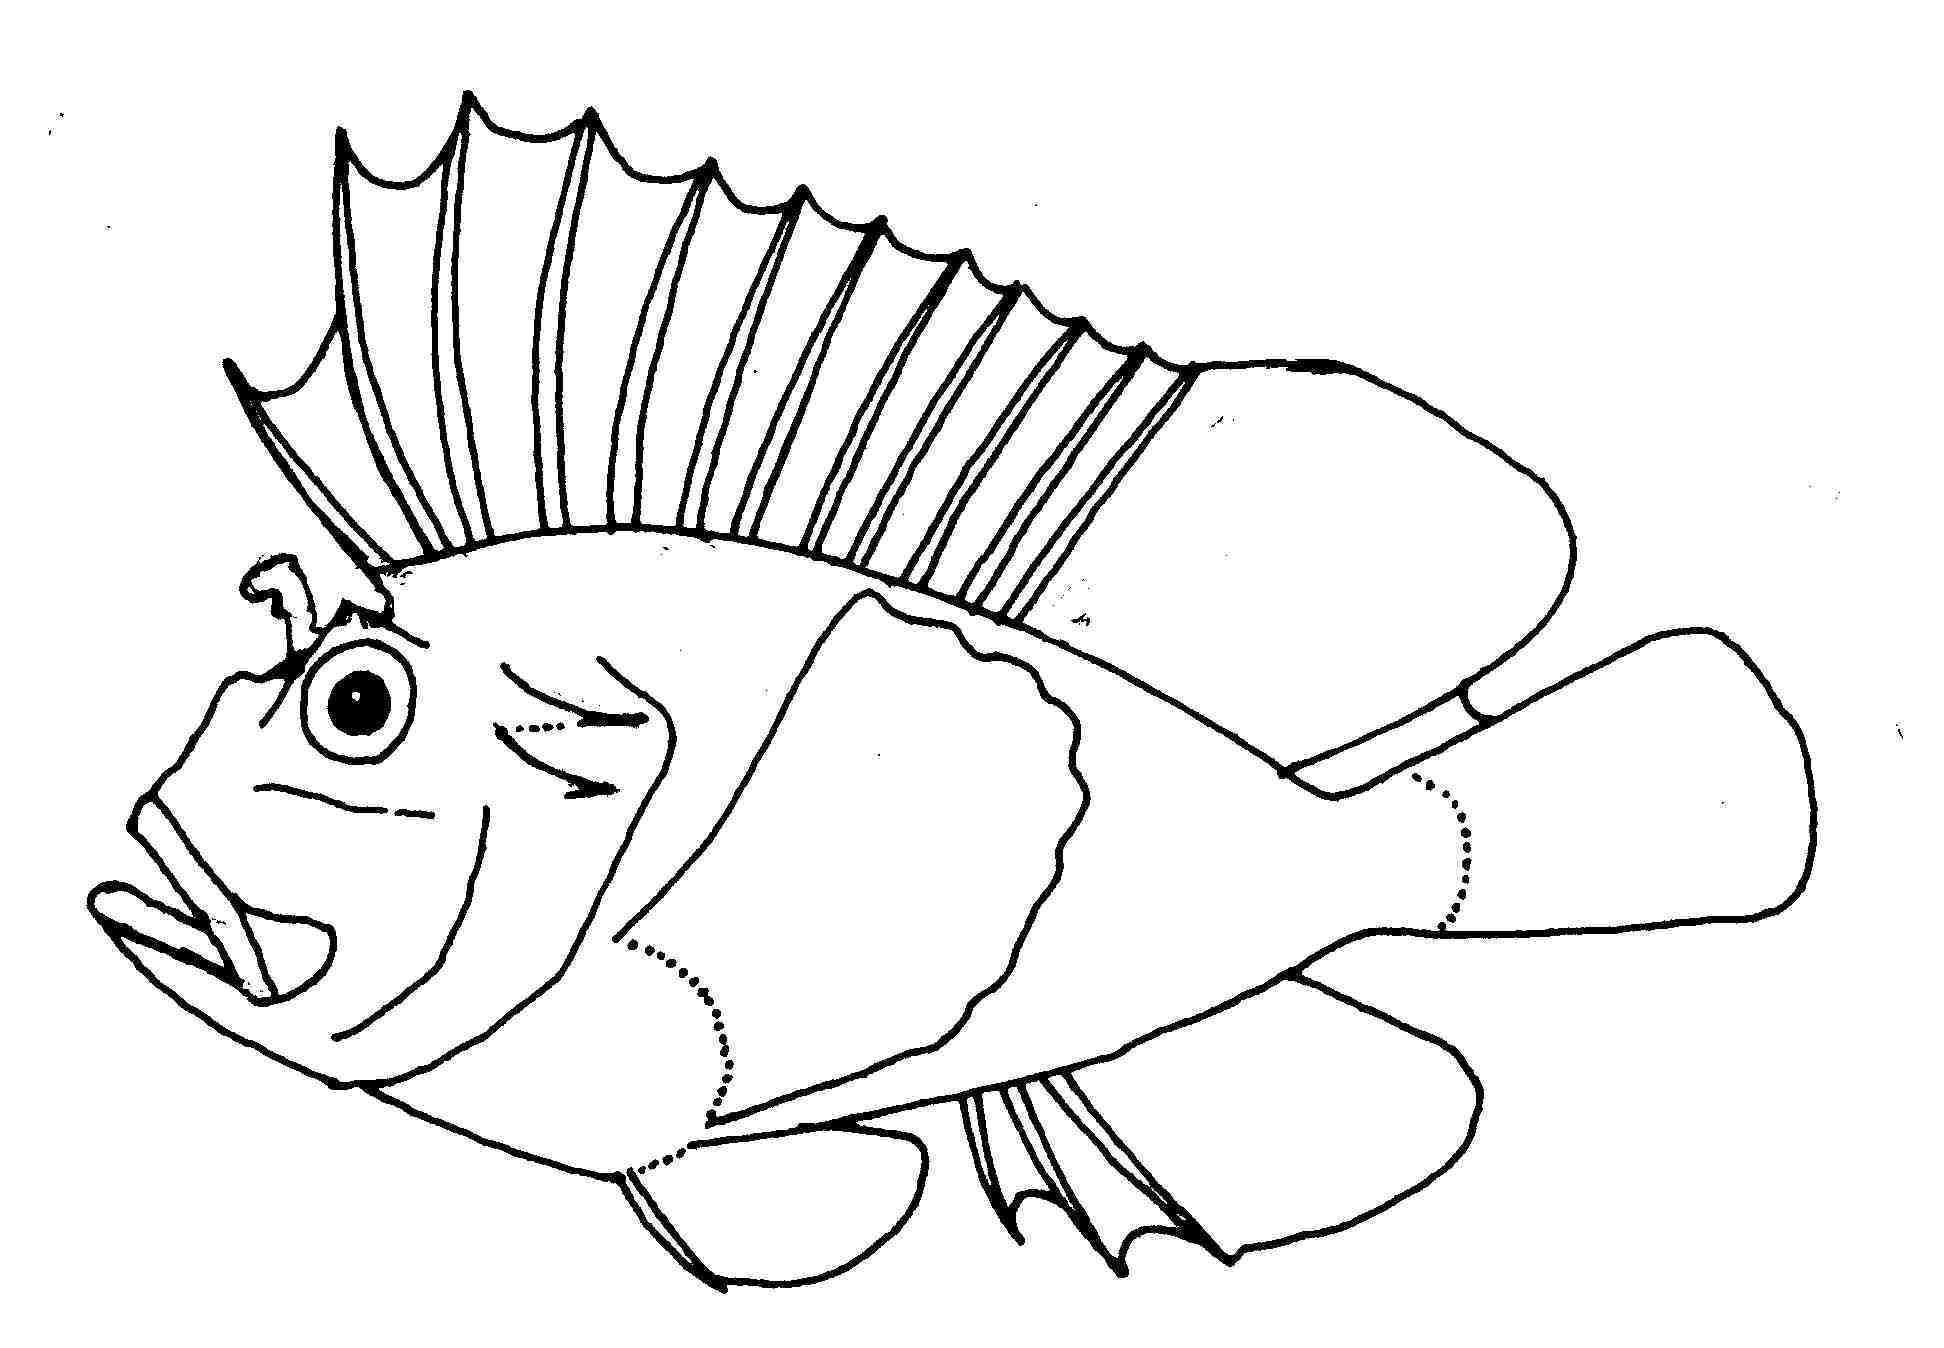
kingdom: Animalia
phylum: Chordata
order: Scorpaeniformes
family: Scorpaenidae
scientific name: Scorpaenidae
